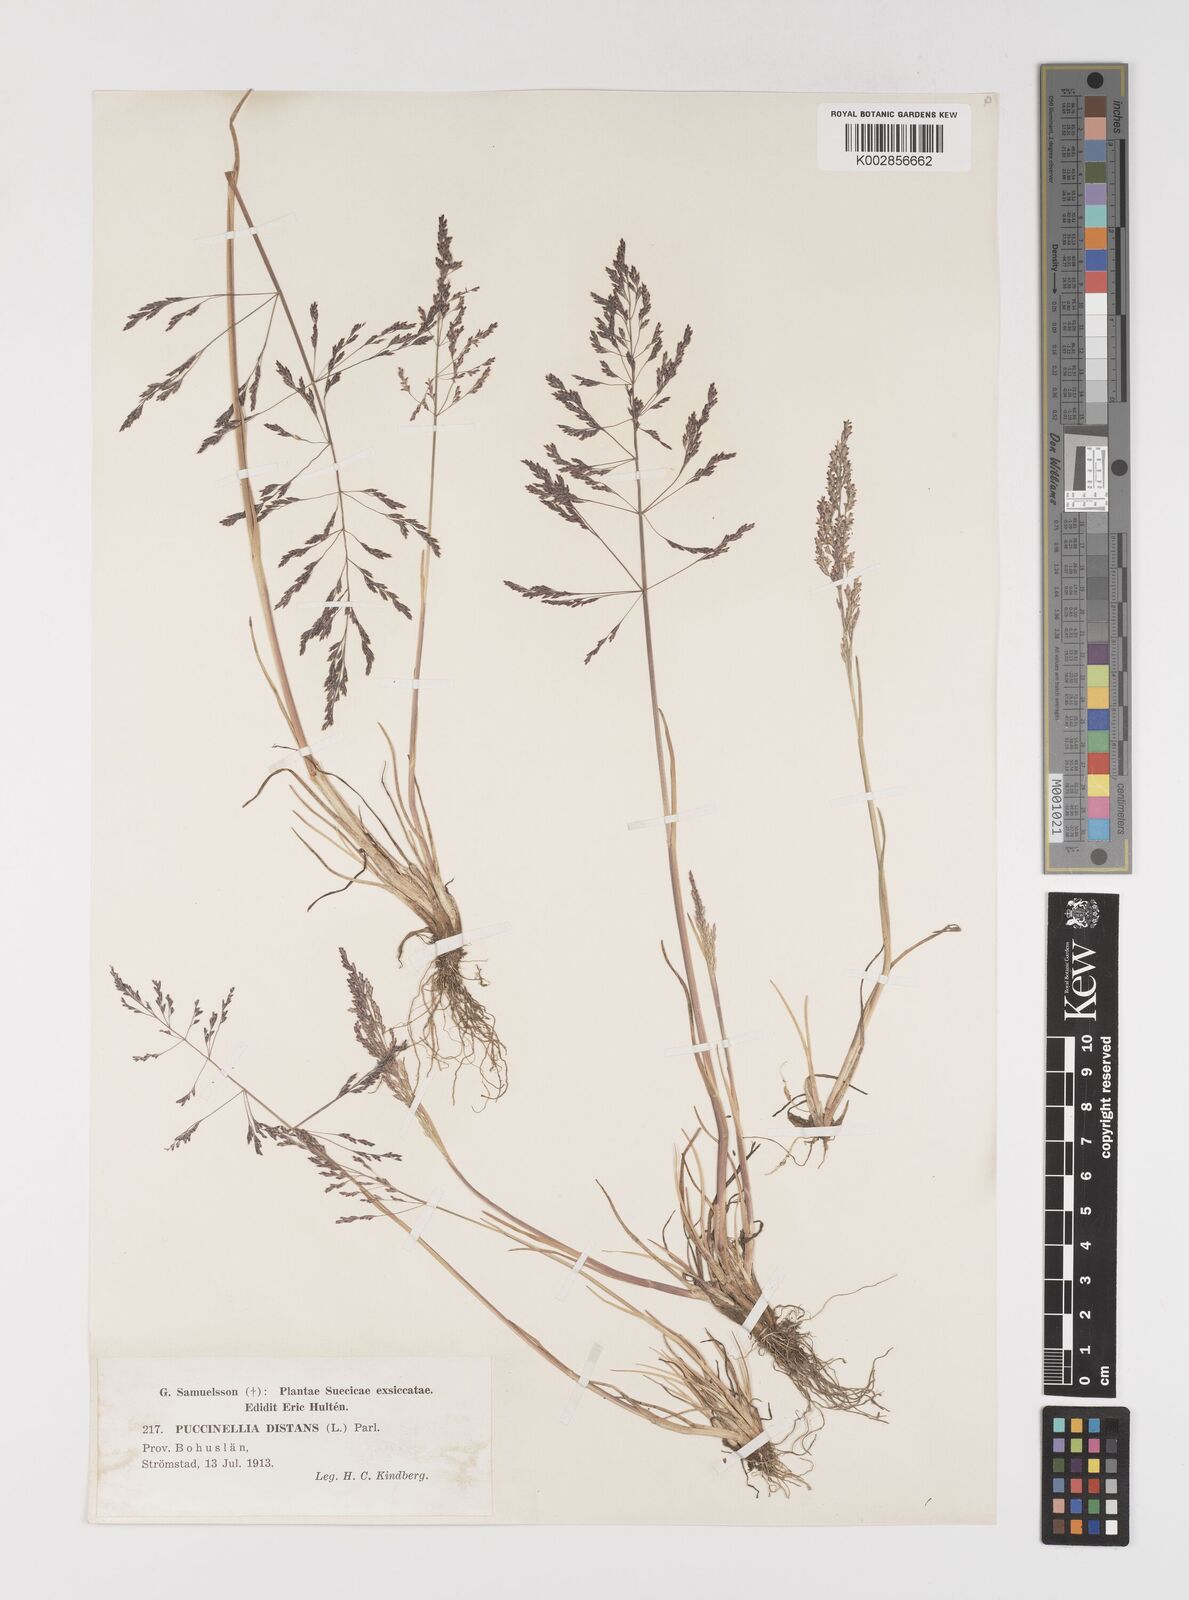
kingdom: Plantae
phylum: Tracheophyta
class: Liliopsida
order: Poales
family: Poaceae
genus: Puccinellia
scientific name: Puccinellia
